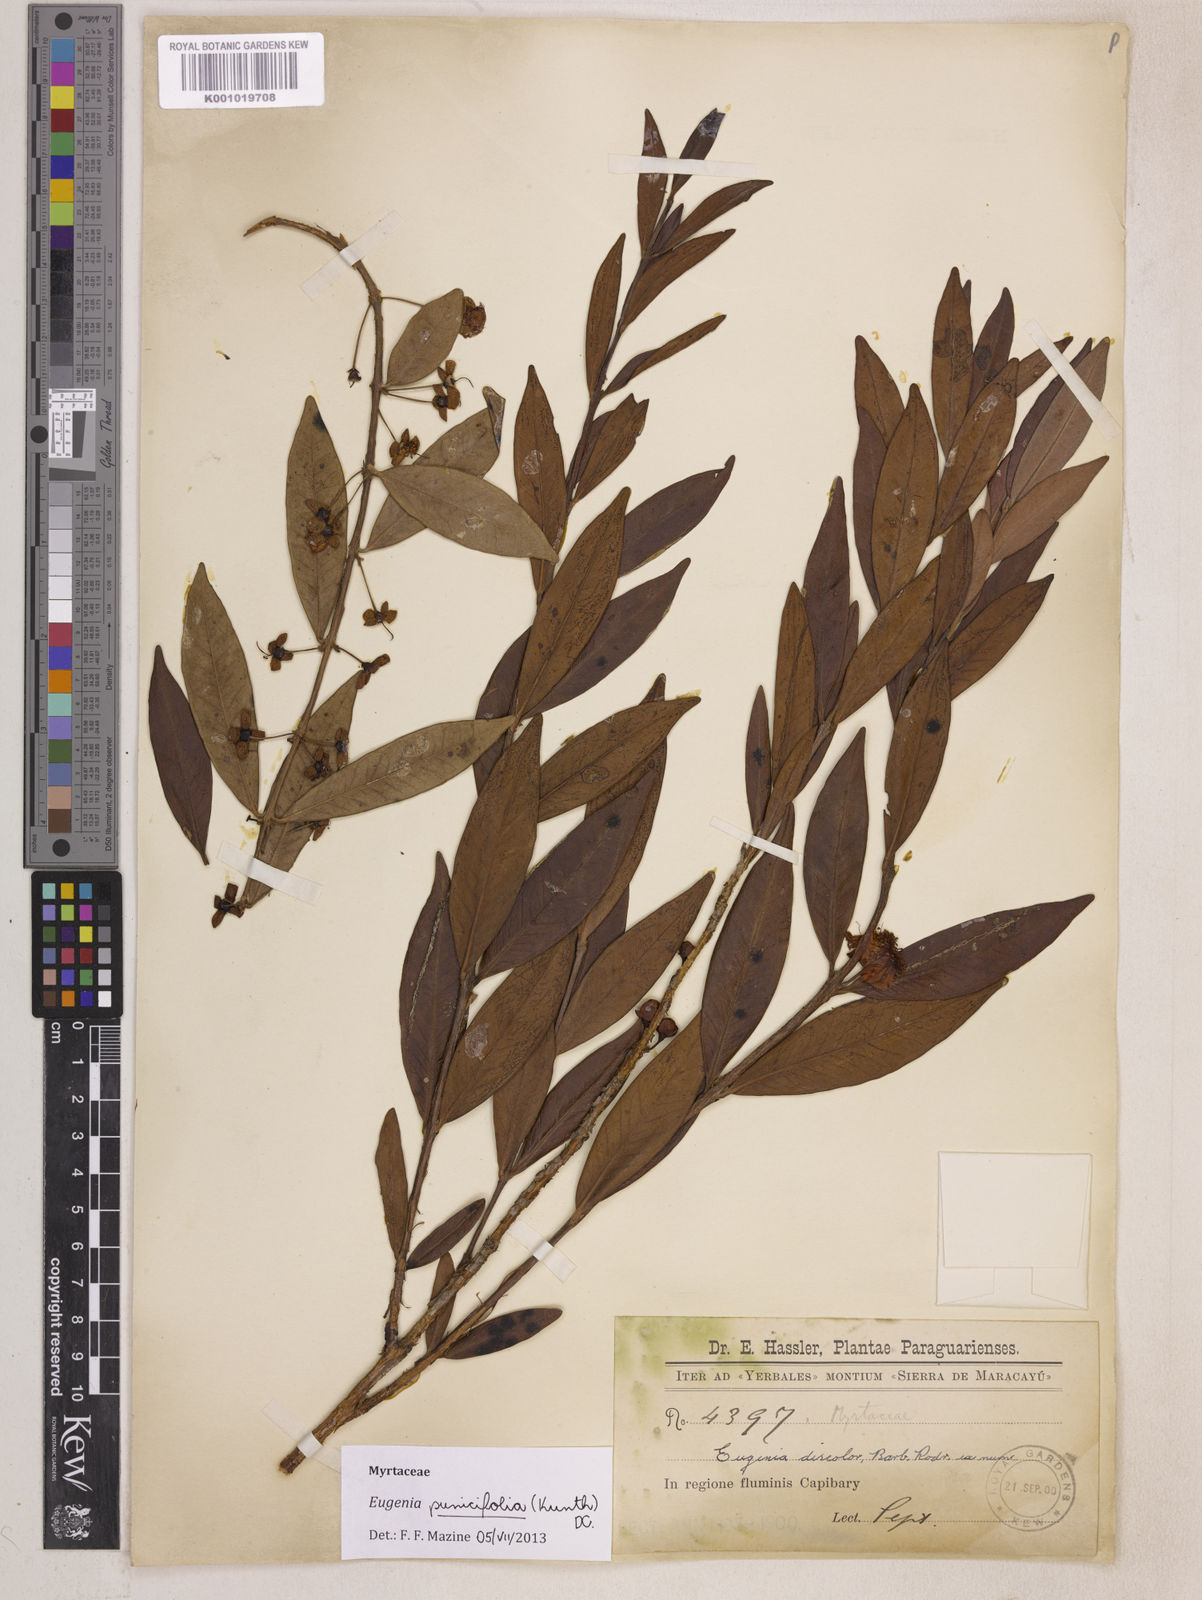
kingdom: Plantae
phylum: Tracheophyta
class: Magnoliopsida
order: Myrtales
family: Myrtaceae
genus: Eugenia
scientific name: Eugenia punicifolia
